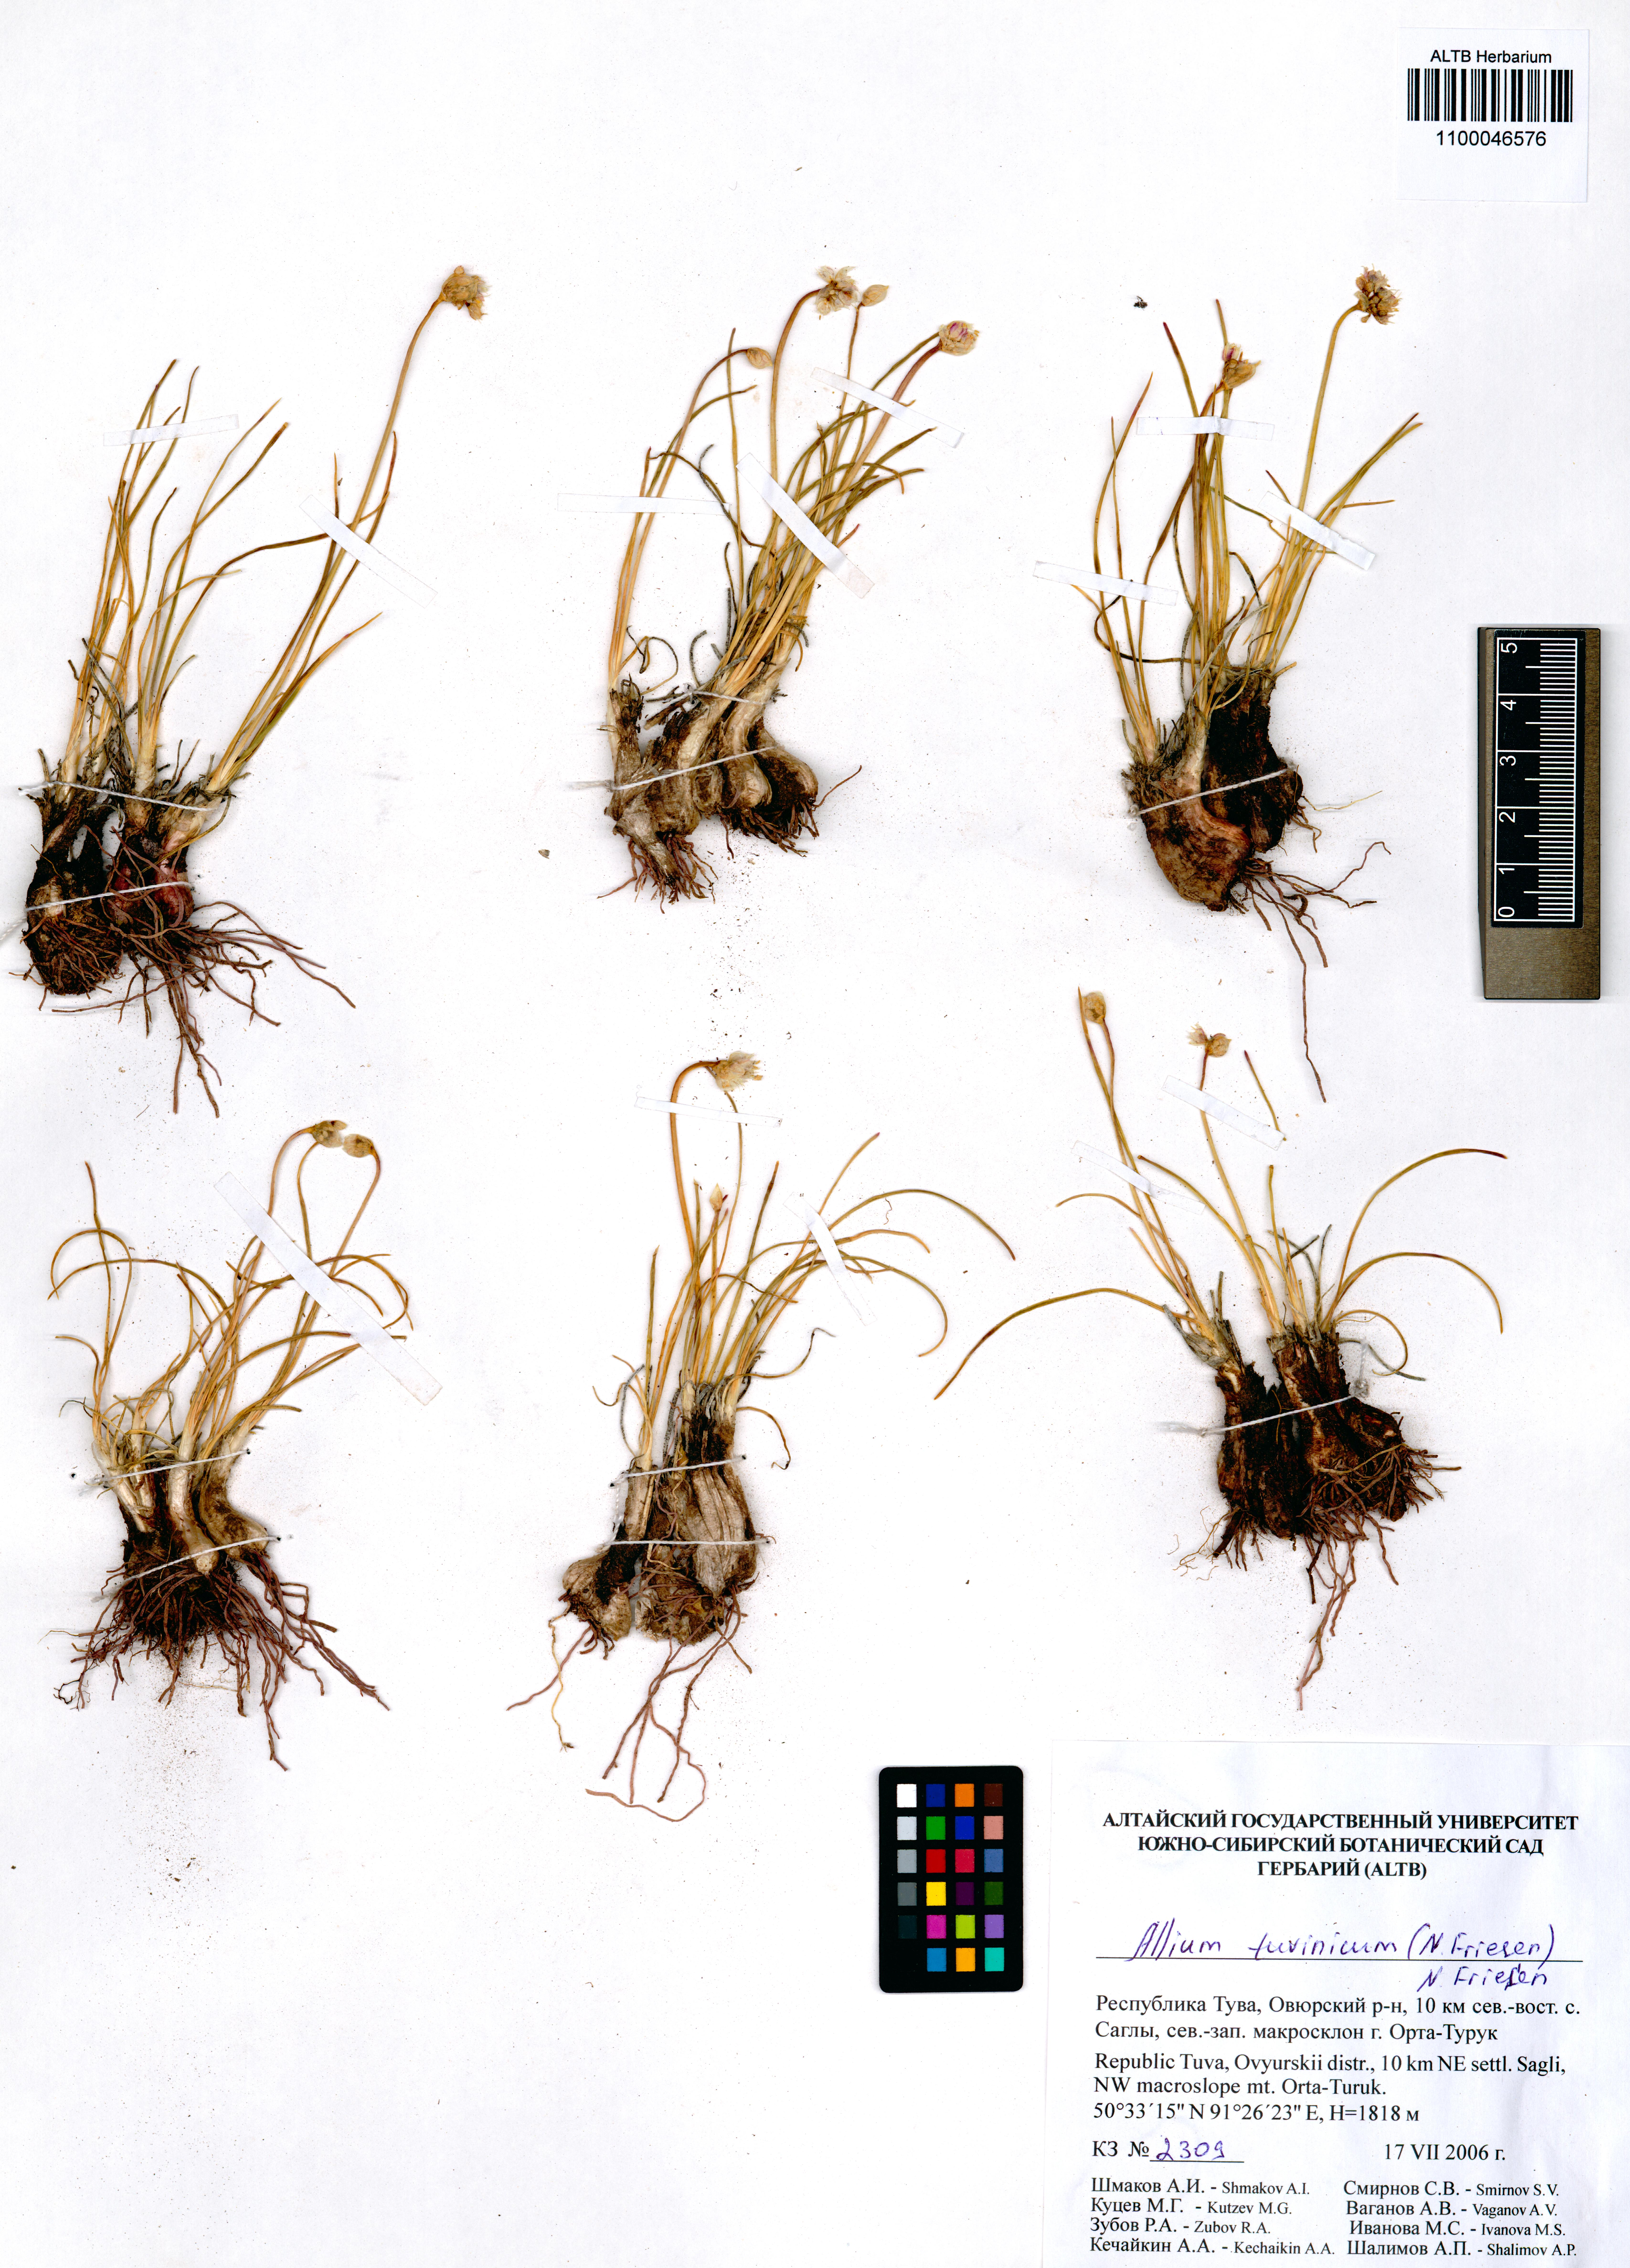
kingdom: Plantae
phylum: Tracheophyta
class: Liliopsida
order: Asparagales
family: Amaryllidaceae
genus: Allium
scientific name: Allium tuvinicum
